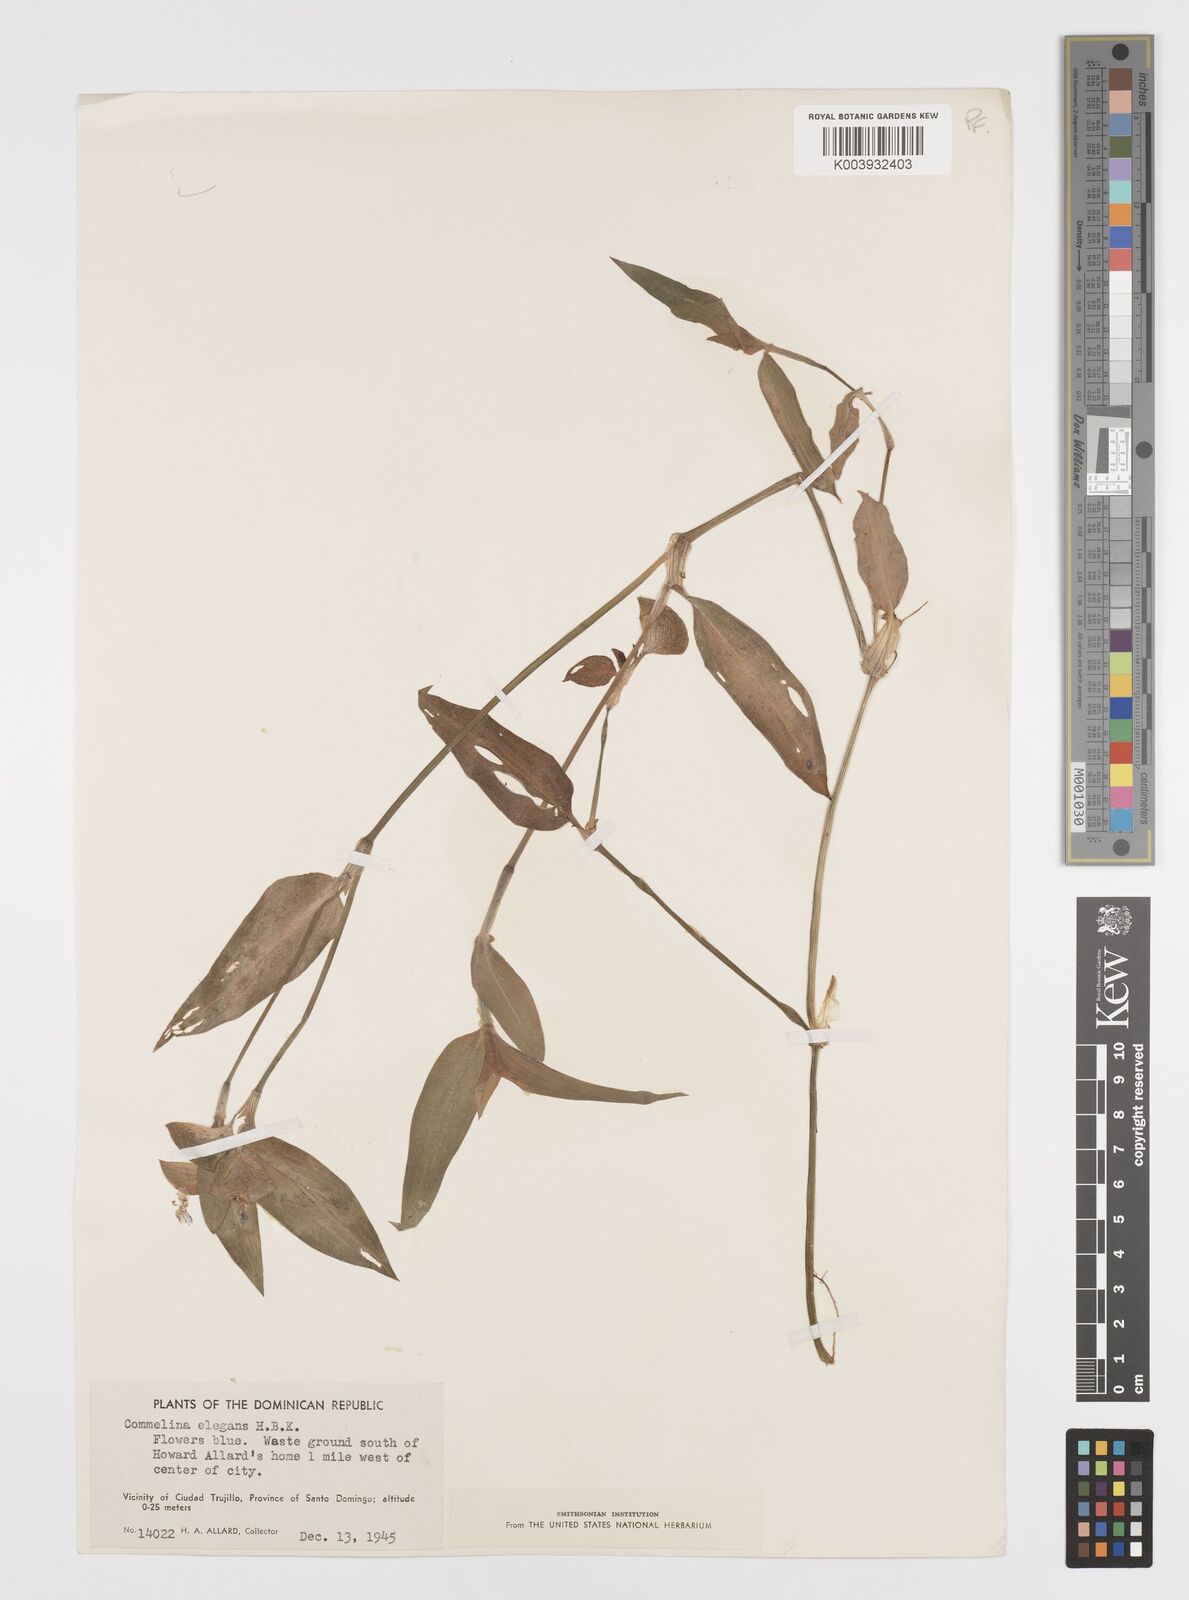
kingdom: Plantae
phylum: Tracheophyta
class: Liliopsida
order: Commelinales
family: Commelinaceae
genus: Commelina
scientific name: Commelina virginica
